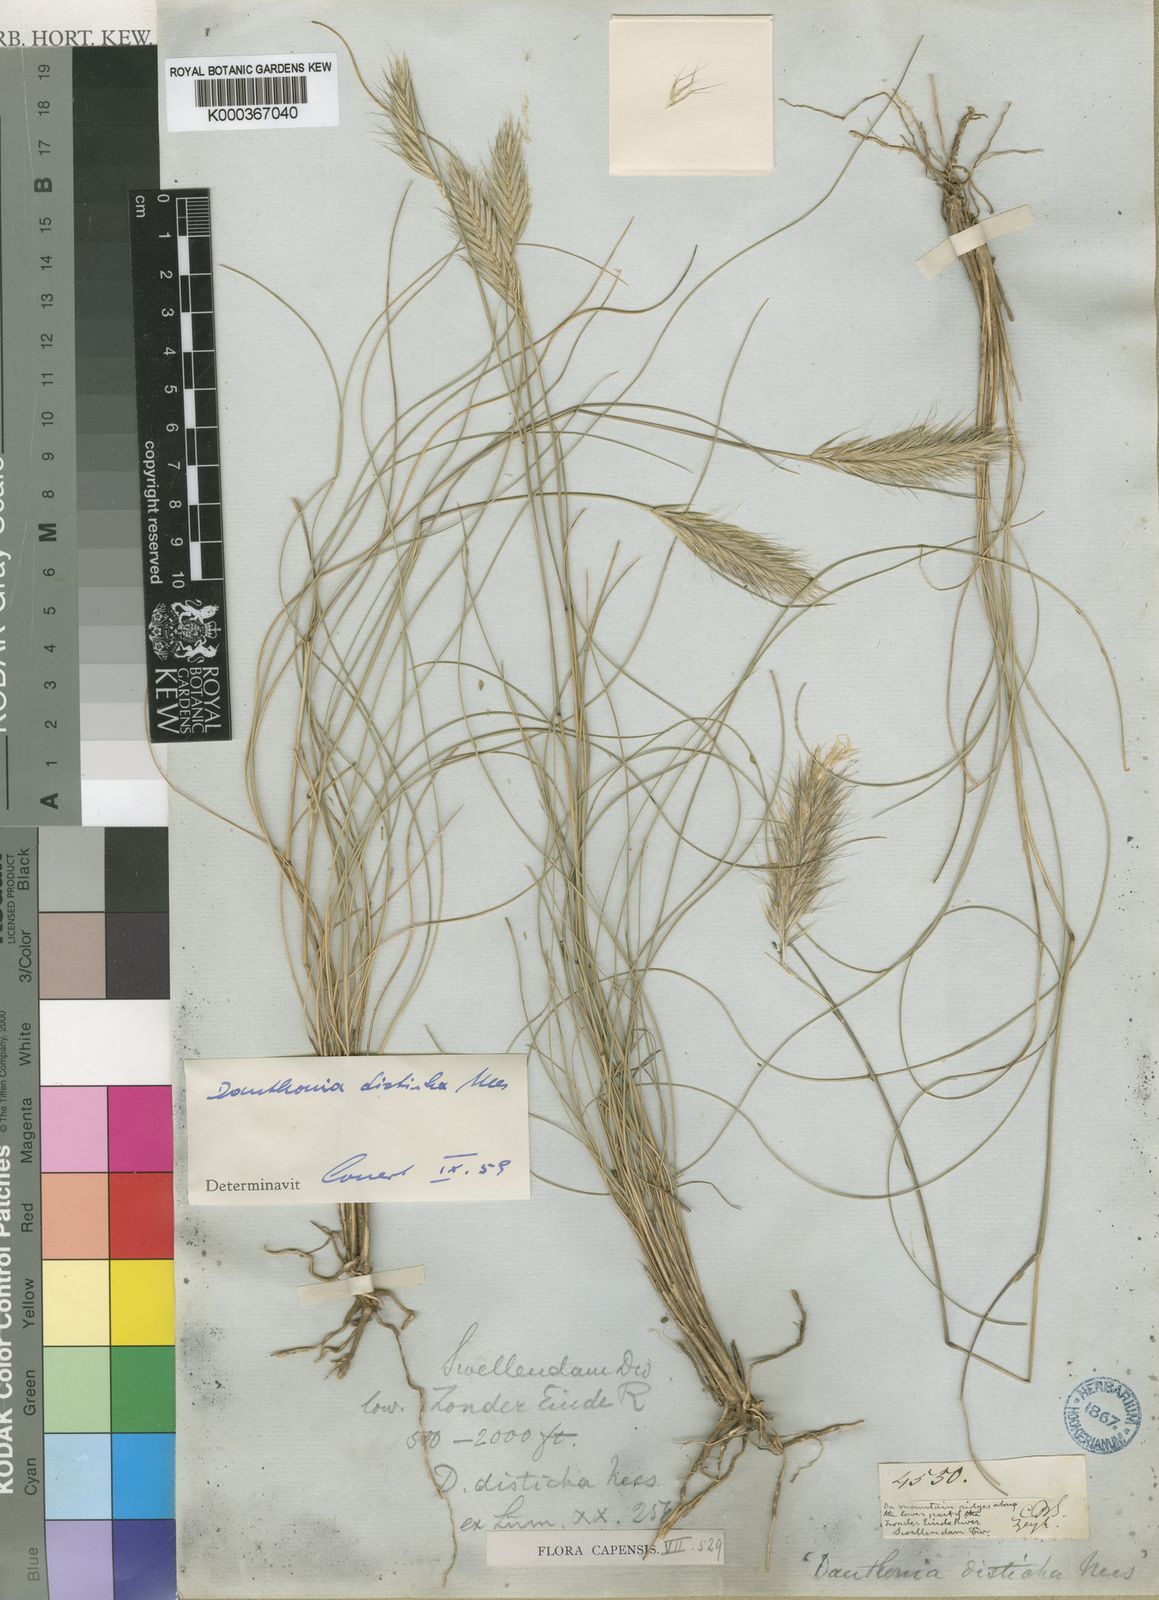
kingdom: Plantae
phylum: Tracheophyta
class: Liliopsida
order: Poales
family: Poaceae
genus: Tenaxia
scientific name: Tenaxia disticha
